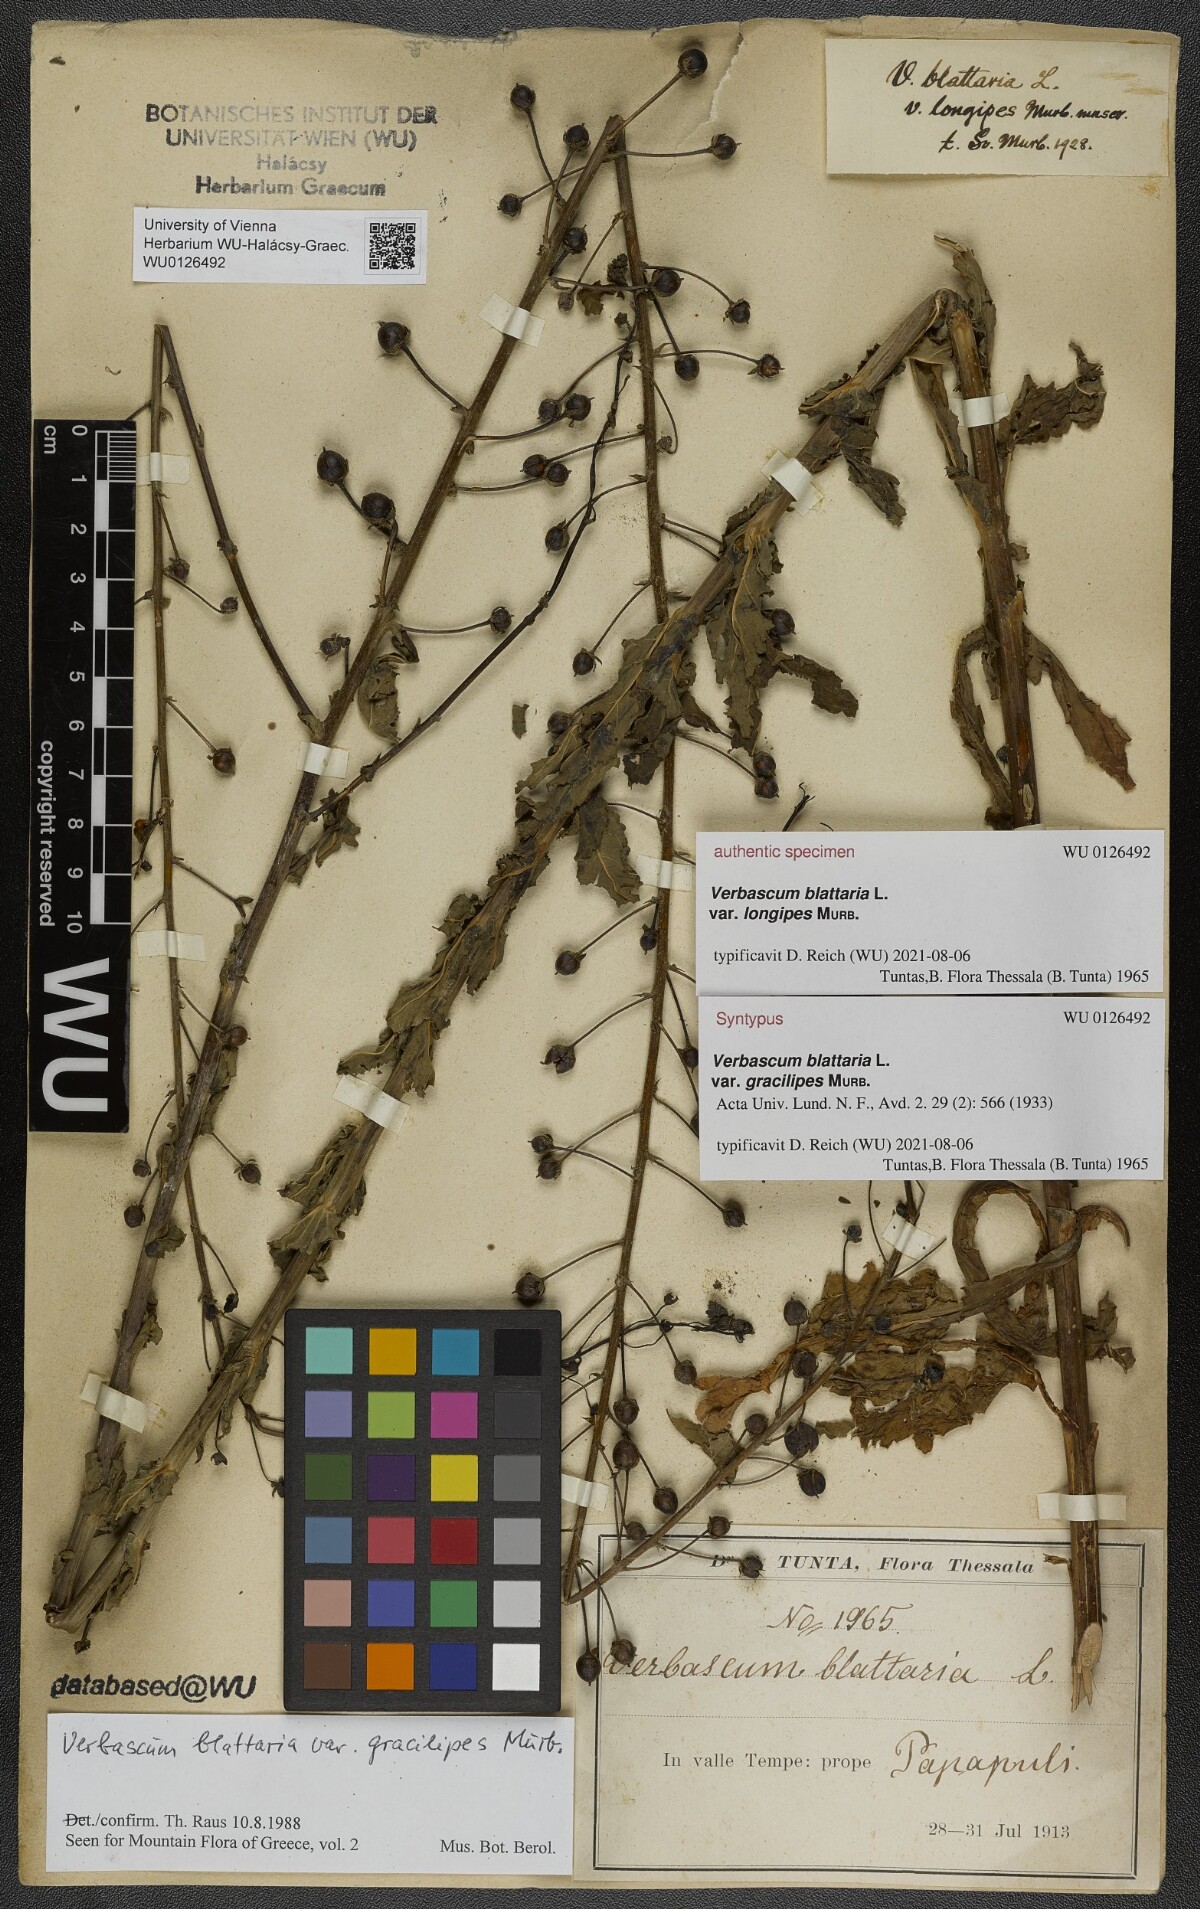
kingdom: Plantae
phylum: Tracheophyta
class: Magnoliopsida
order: Lamiales
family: Scrophulariaceae
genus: Verbascum
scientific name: Verbascum blattaria
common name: Moth mullein
